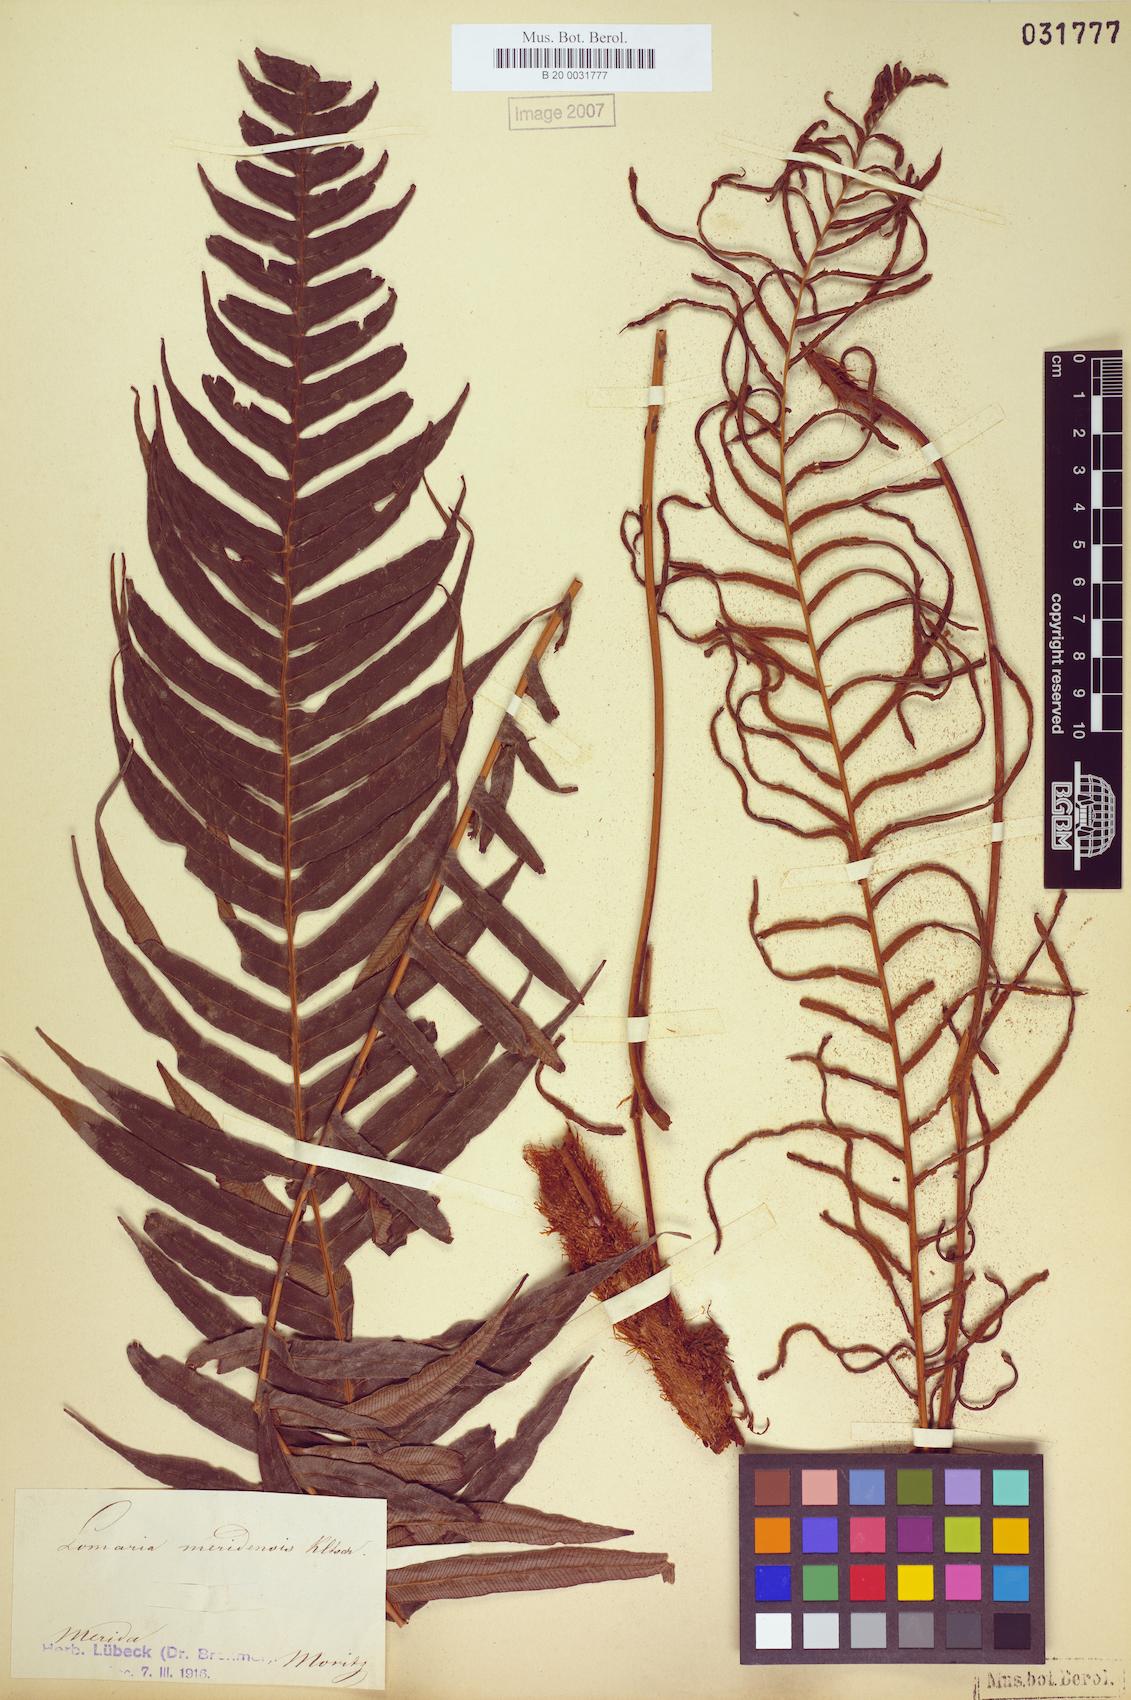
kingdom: Plantae
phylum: Tracheophyta
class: Polypodiopsida
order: Polypodiales
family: Blechnaceae
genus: Lomaridium
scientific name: Lomaridium ensiforme
